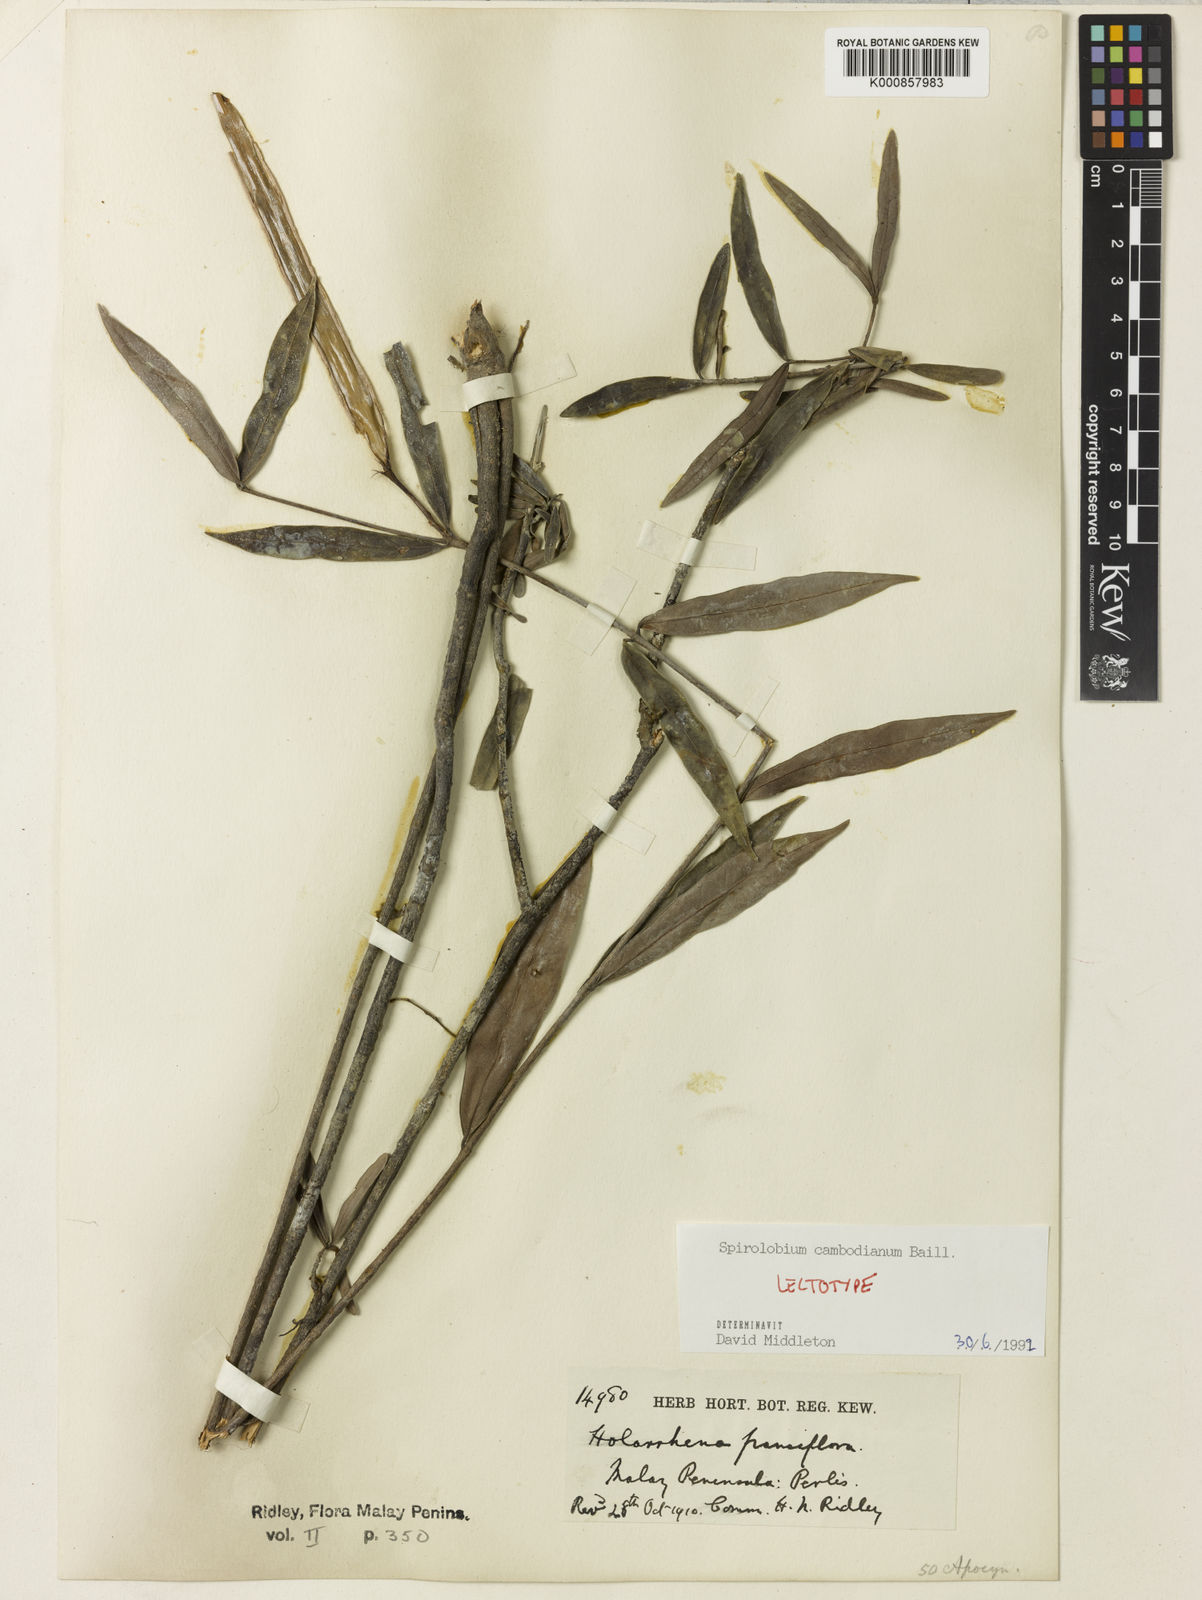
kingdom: Plantae
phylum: Tracheophyta
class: Magnoliopsida
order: Gentianales
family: Apocynaceae
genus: Spirolobium
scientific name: Spirolobium cambodianum
